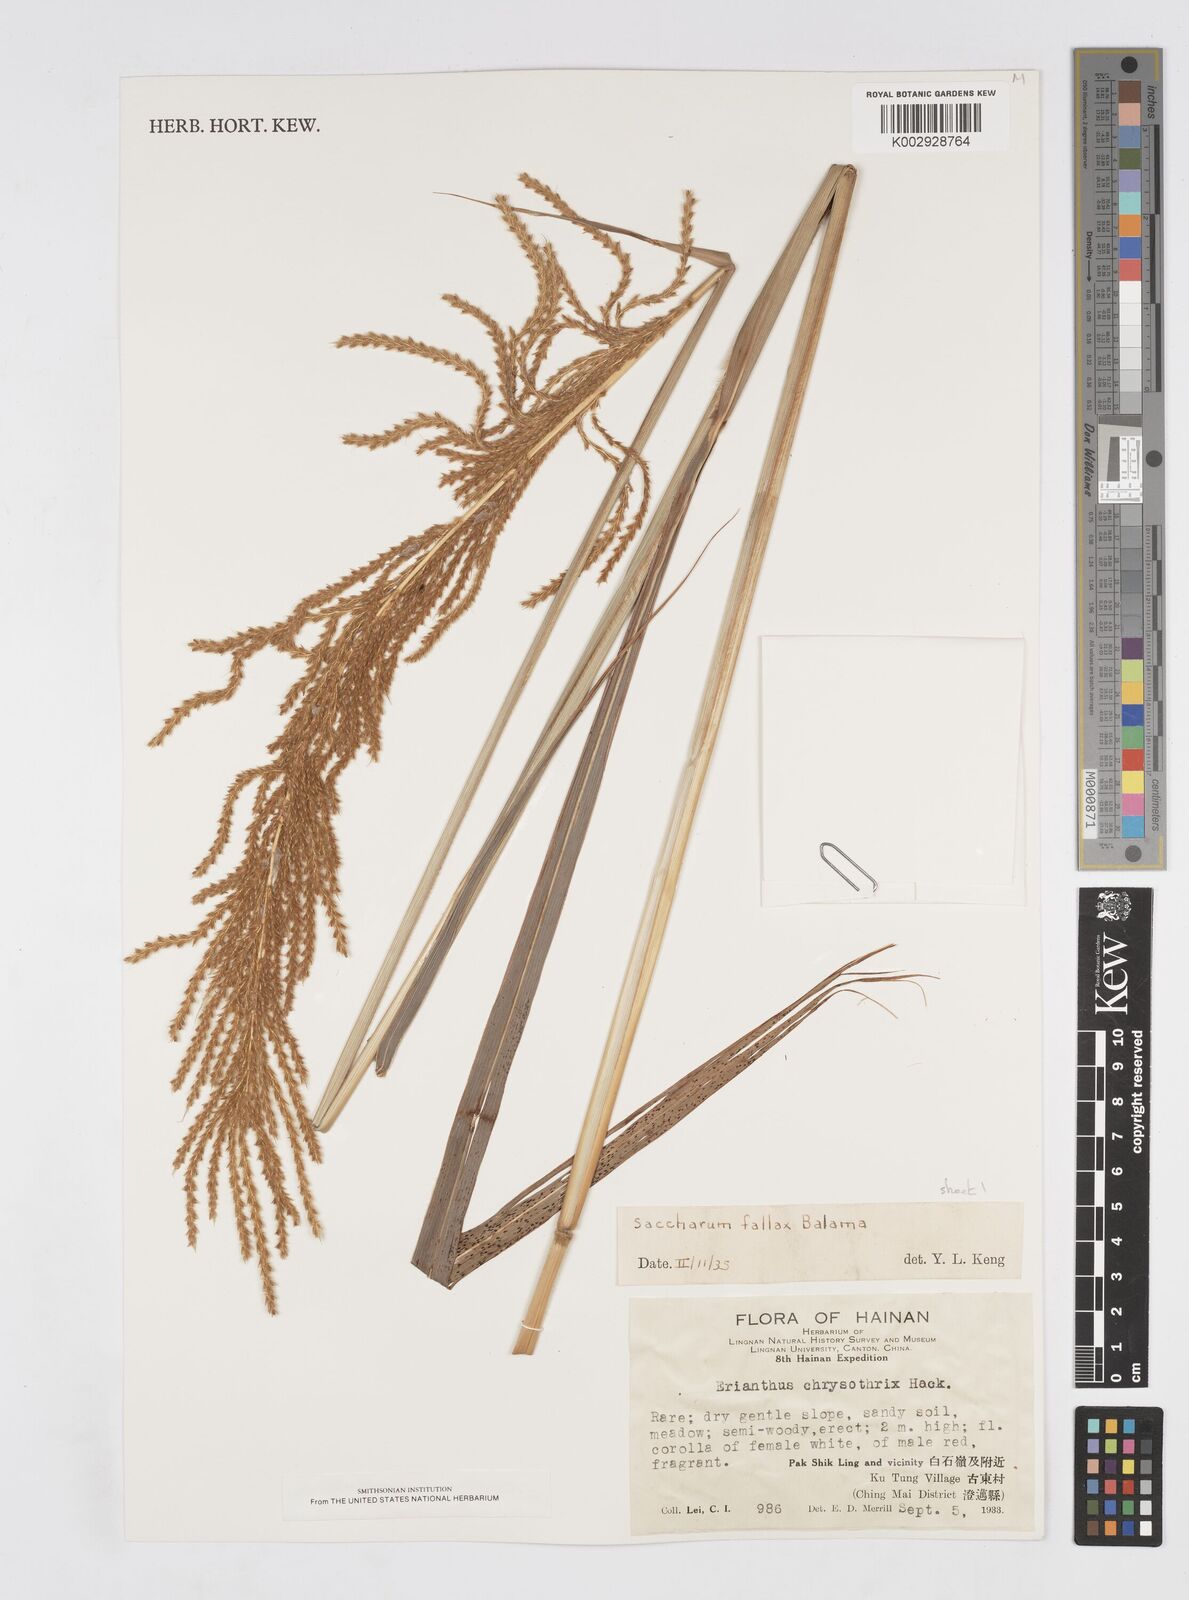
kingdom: Plantae
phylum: Tracheophyta
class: Liliopsida
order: Poales
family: Poaceae
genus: Narenga
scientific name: Narenga fallax
